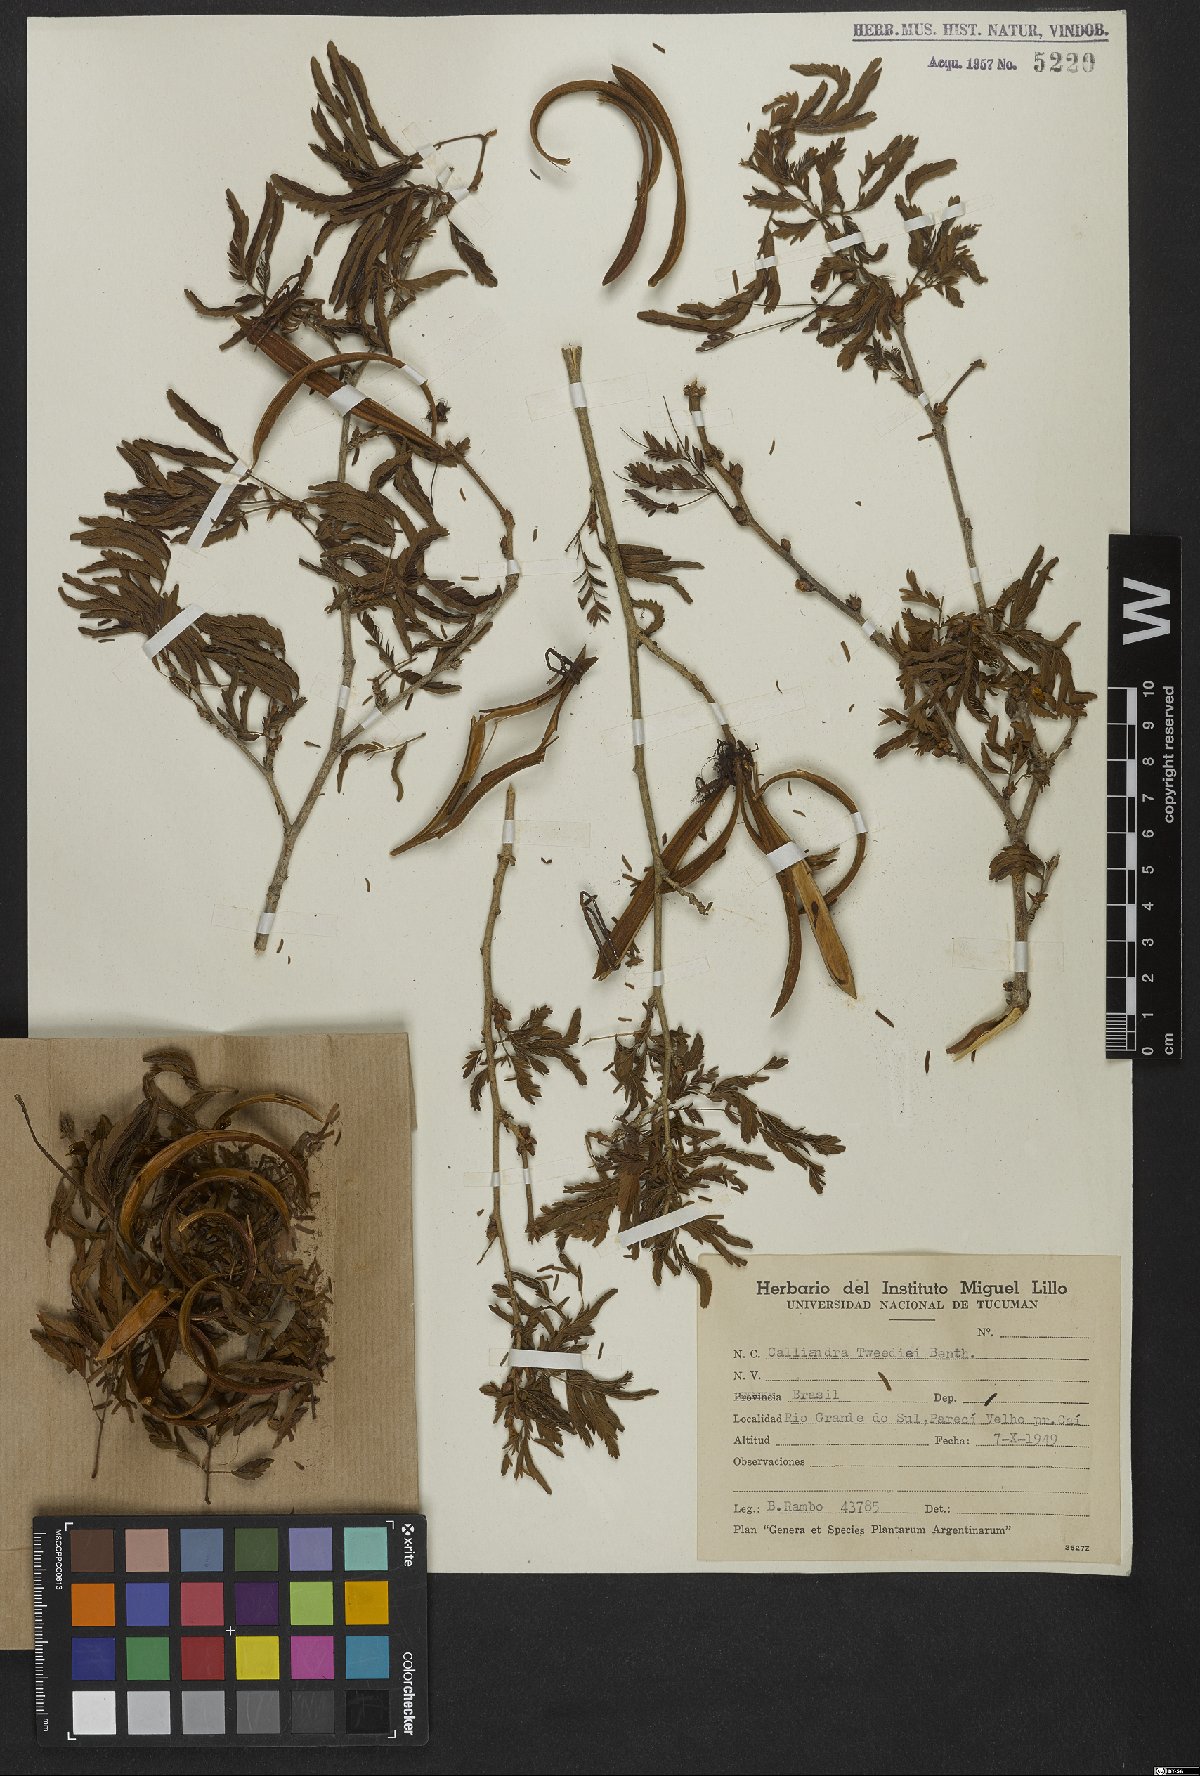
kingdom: Plantae
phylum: Tracheophyta
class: Magnoliopsida
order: Fabales
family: Fabaceae
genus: Calliandra
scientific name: Calliandra tweedii
